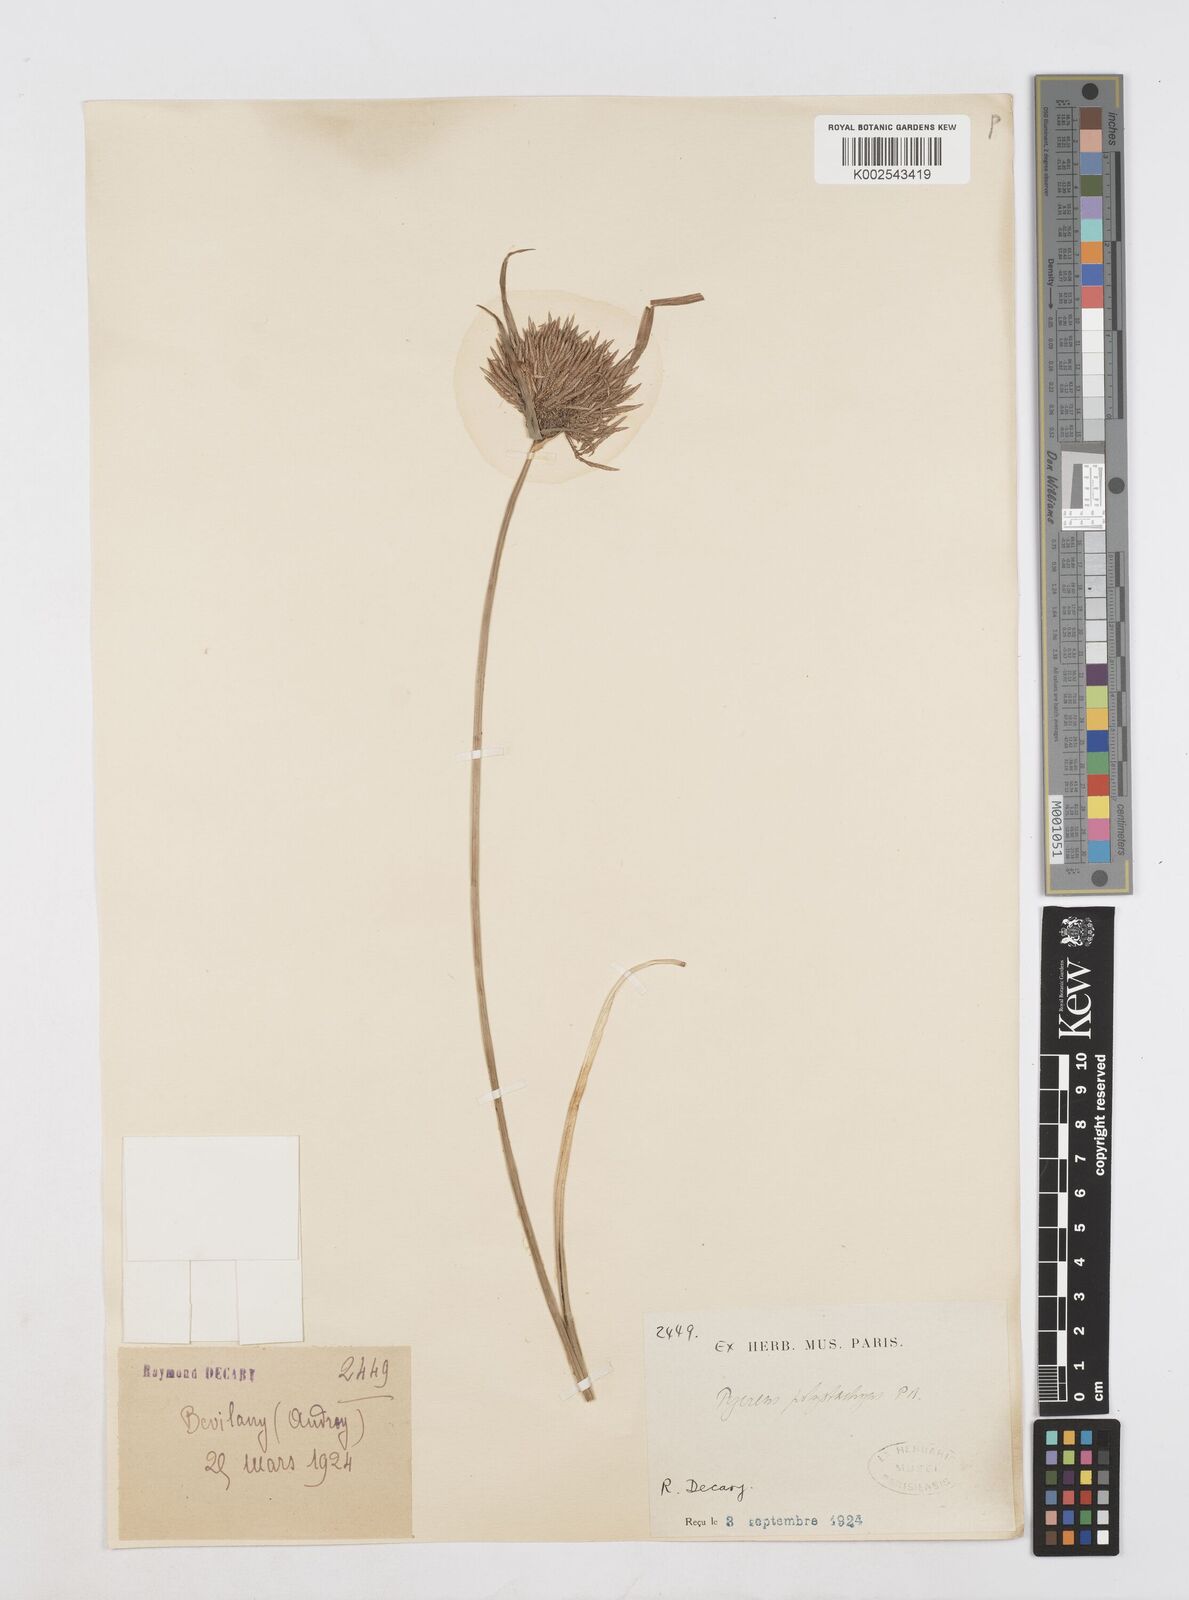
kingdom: Plantae
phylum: Tracheophyta
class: Liliopsida
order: Poales
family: Cyperaceae
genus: Cyperus
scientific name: Cyperus polystachyos
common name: Bunchy flat sedge
